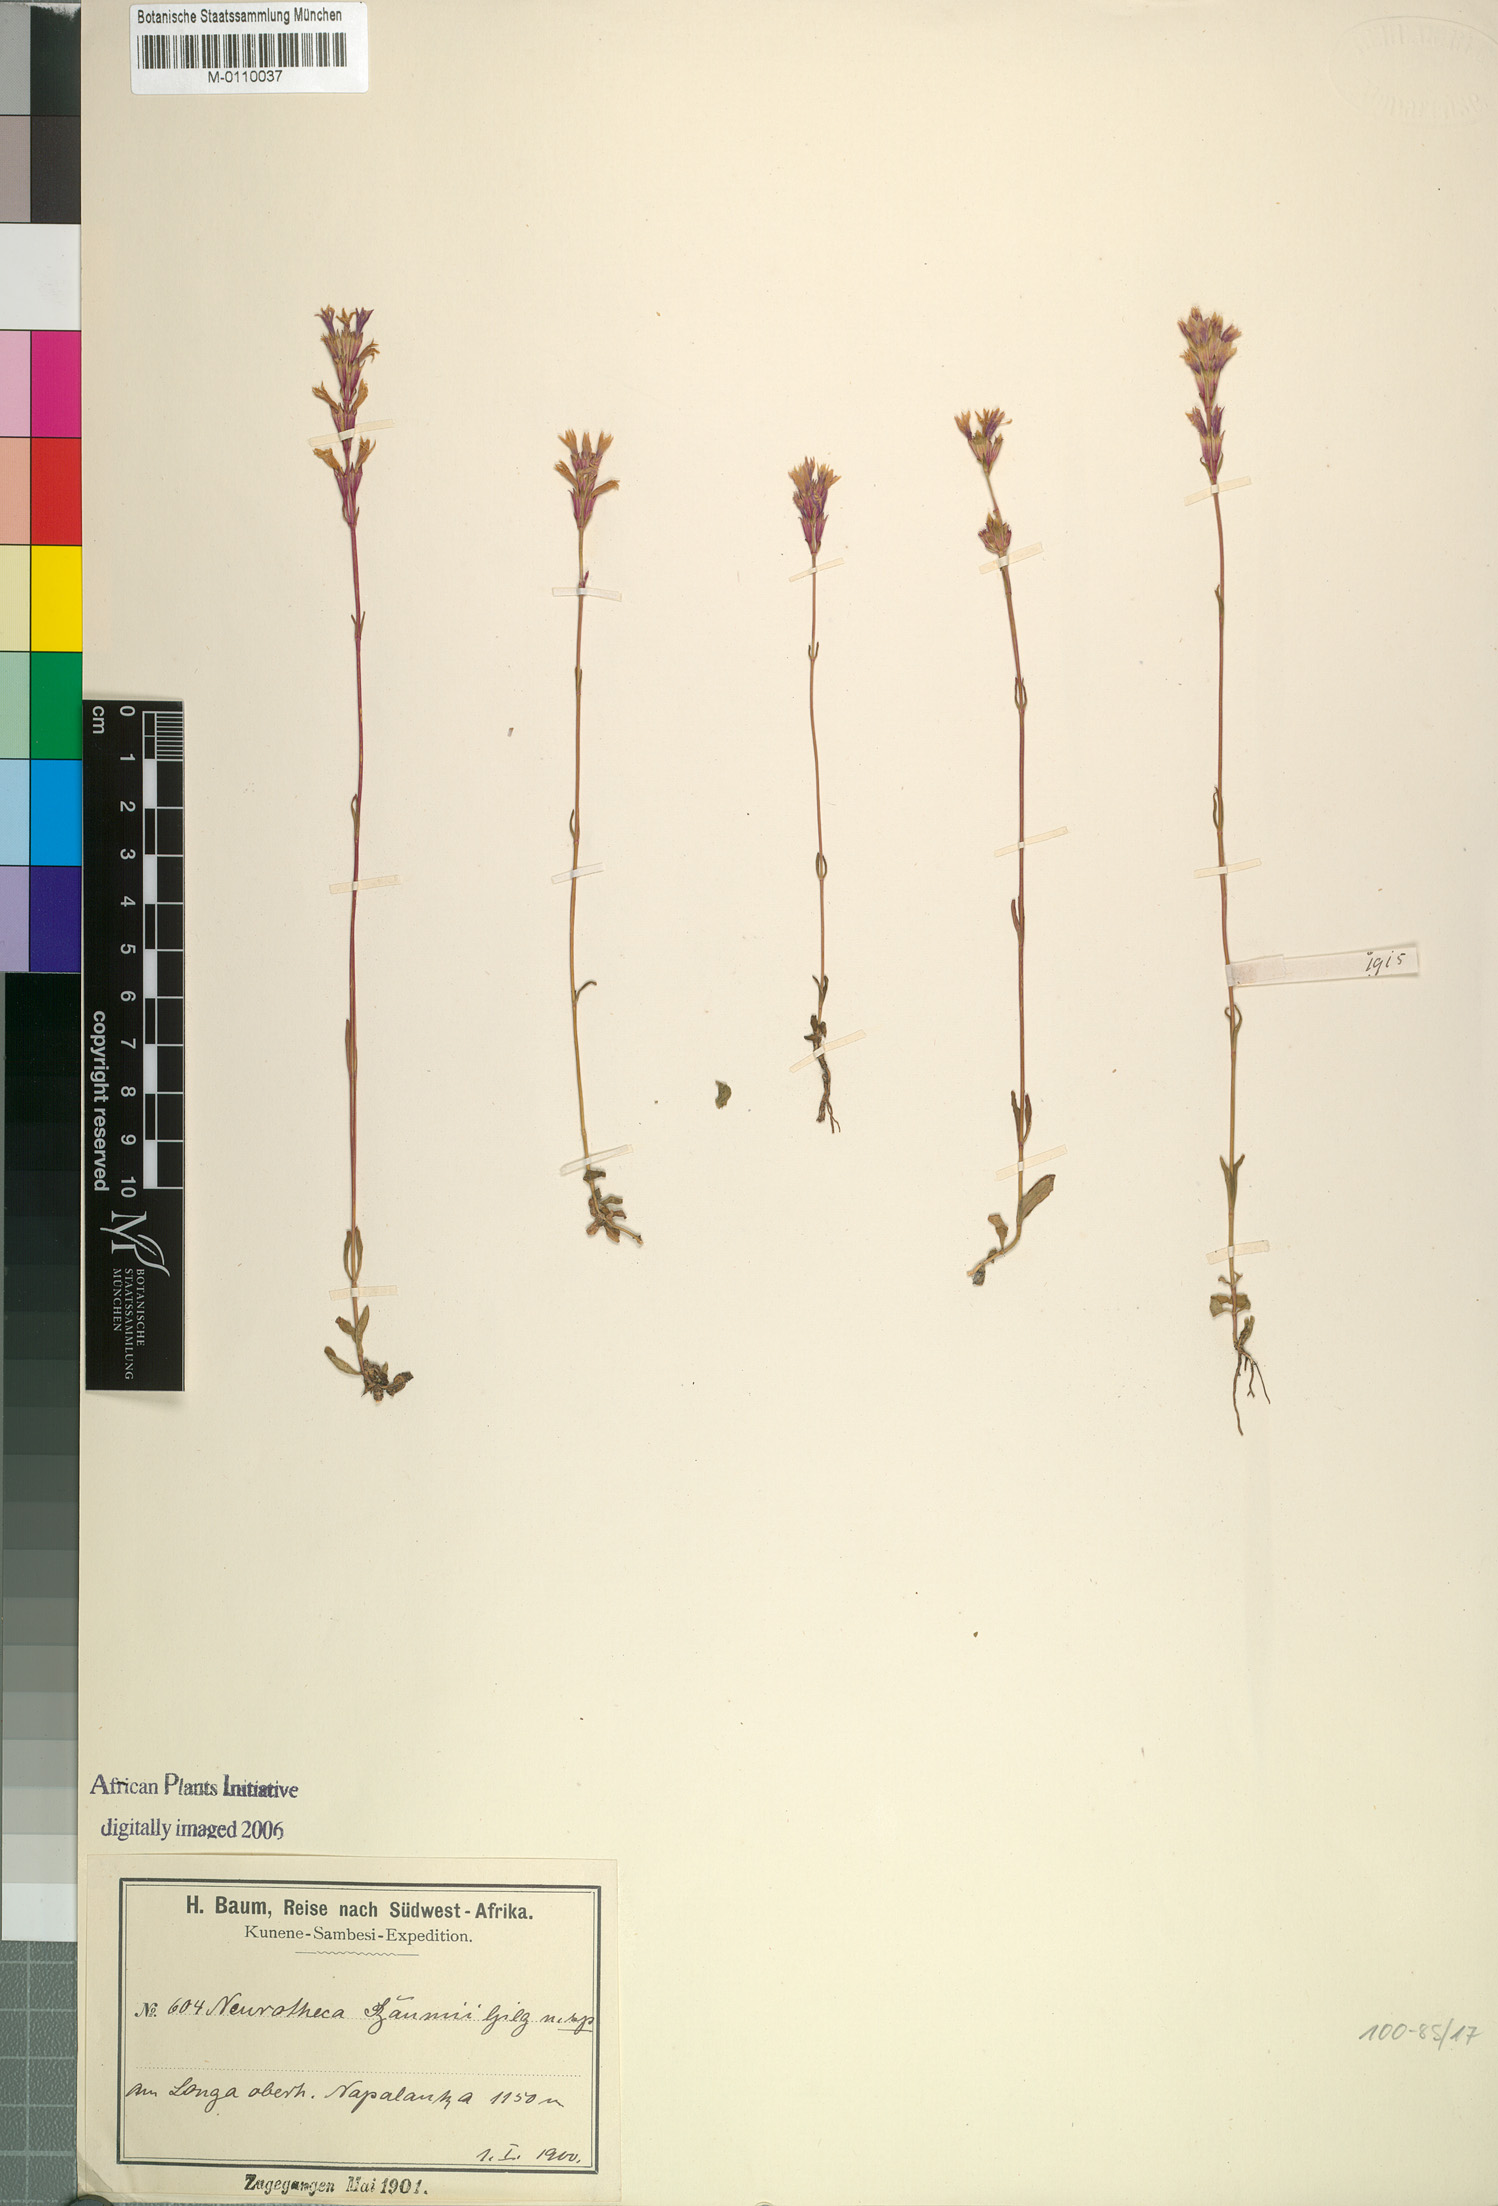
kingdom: Plantae
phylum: Tracheophyta
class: Magnoliopsida
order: Gentianales
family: Gentianaceae
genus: Neurotheca
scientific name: Neurotheca congolana
